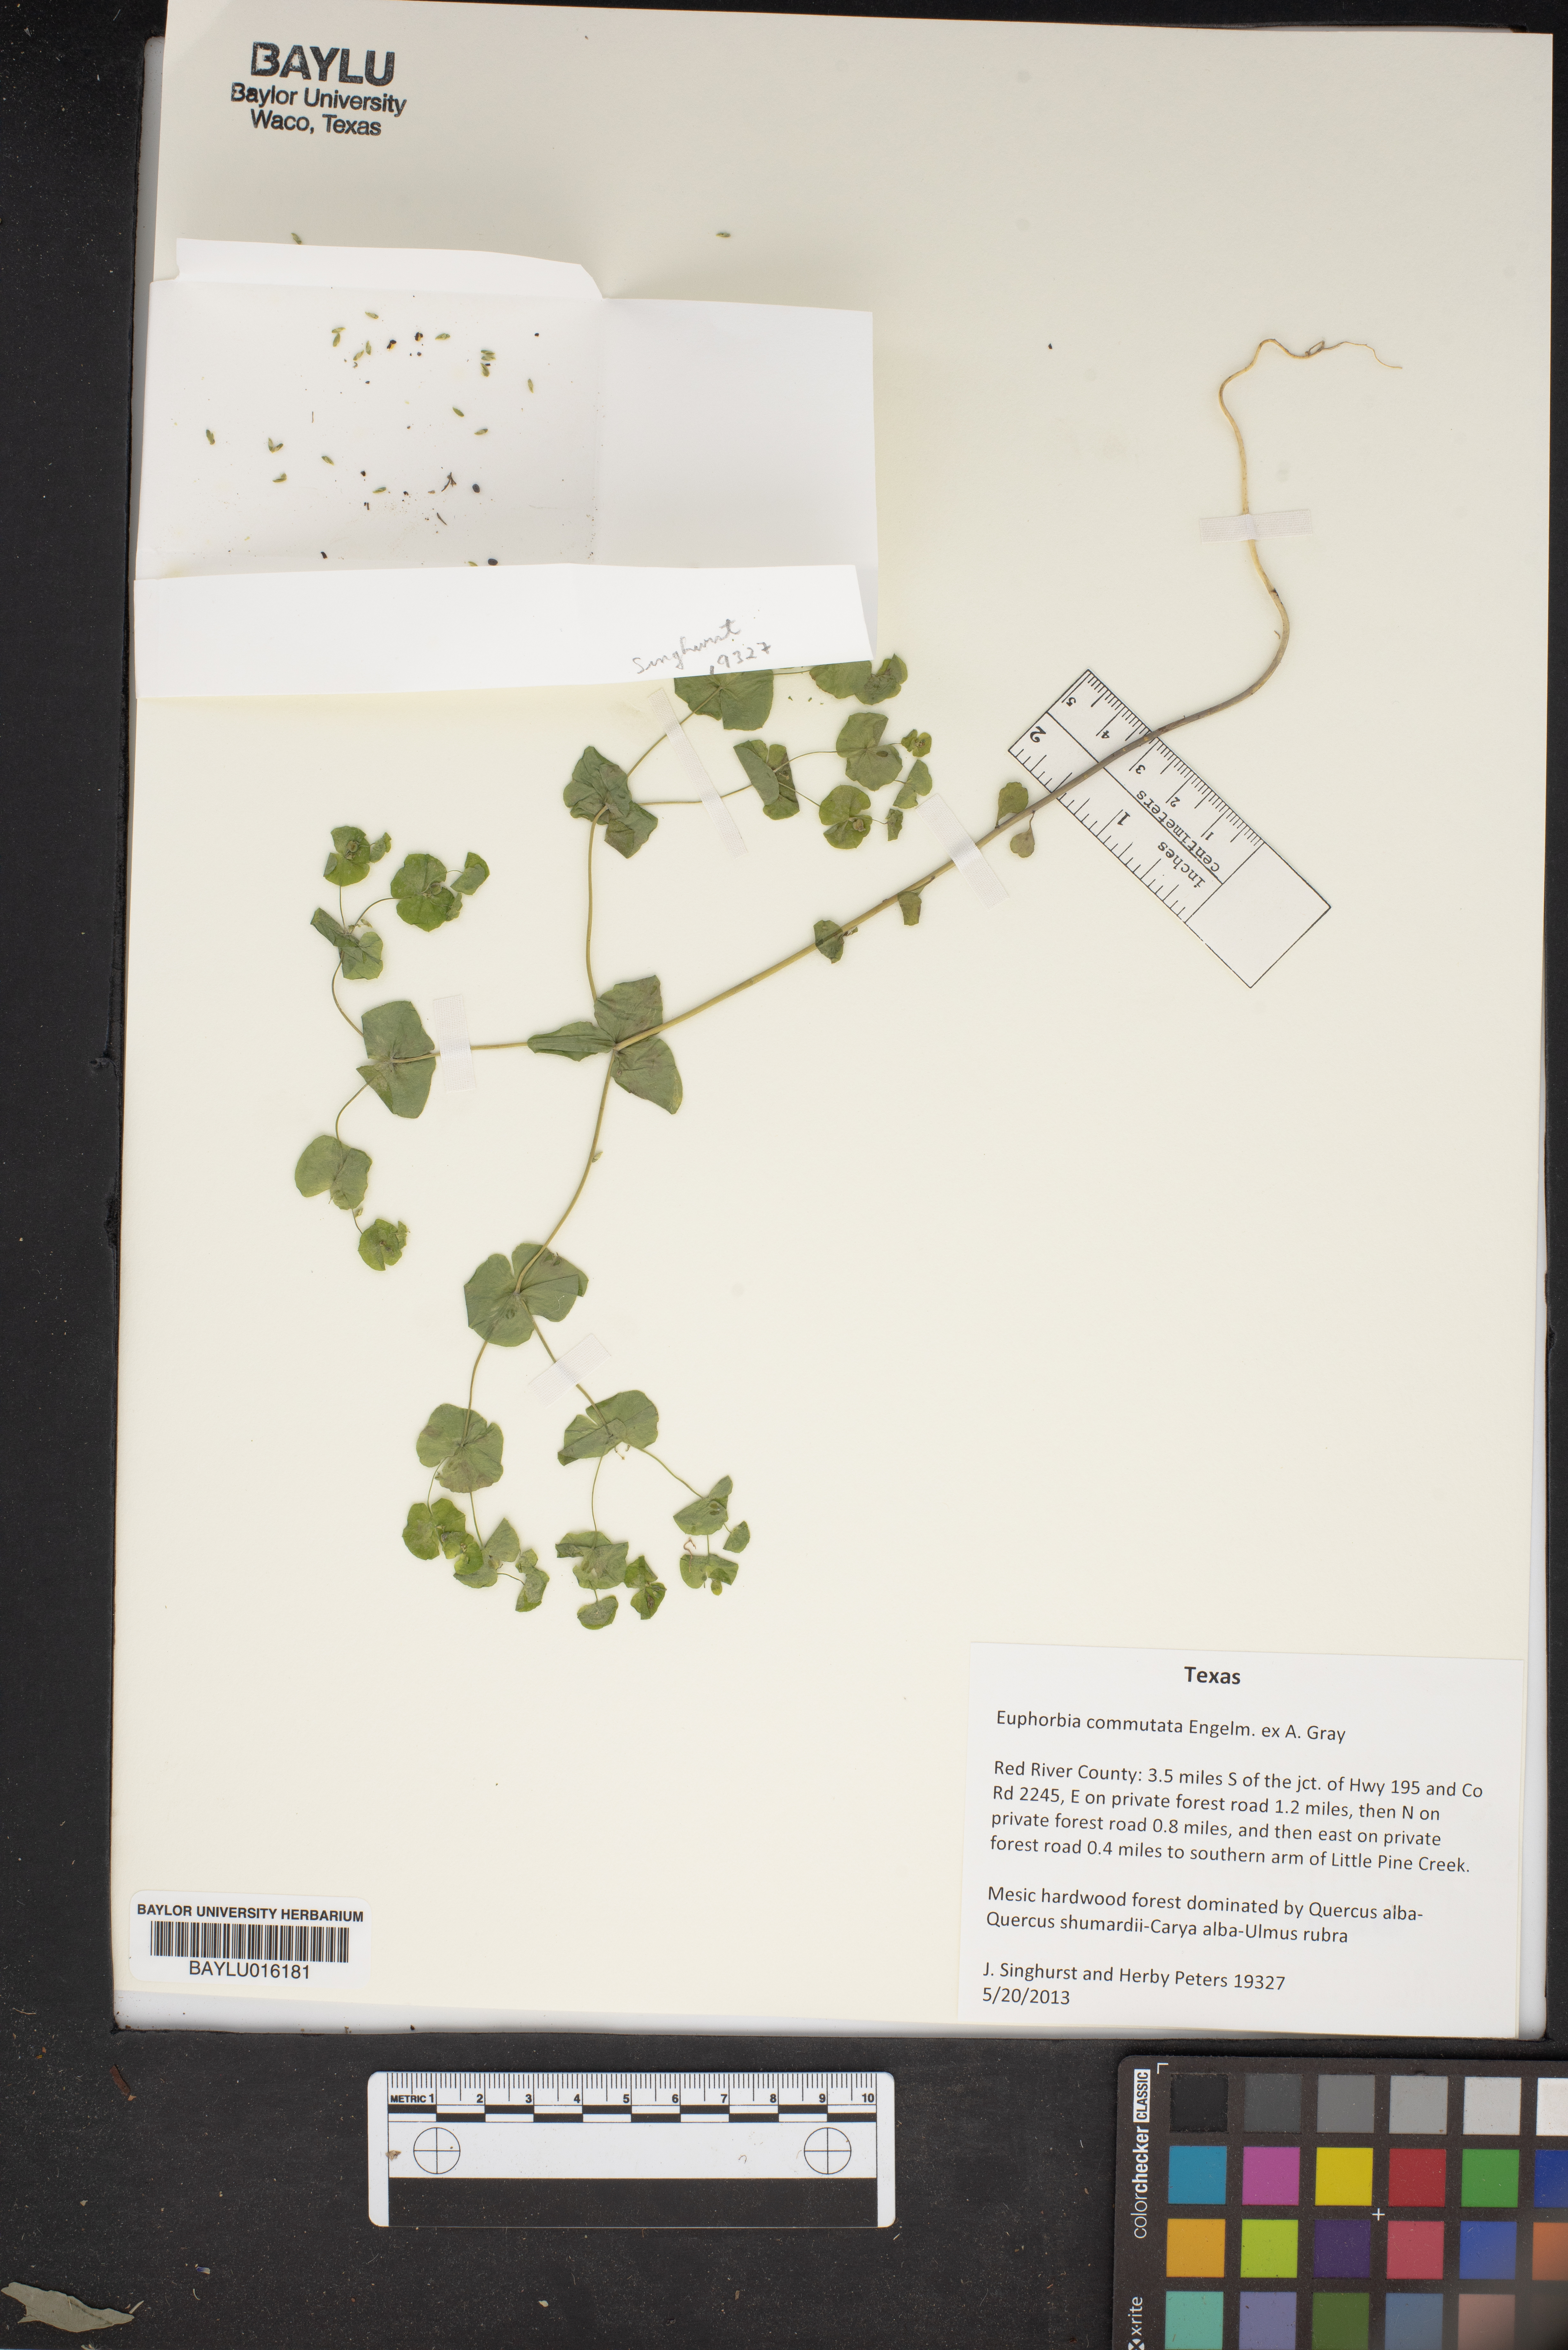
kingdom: Plantae
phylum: Tracheophyta
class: Magnoliopsida
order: Malpighiales
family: Euphorbiaceae
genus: Euphorbia
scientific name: Euphorbia commutata
